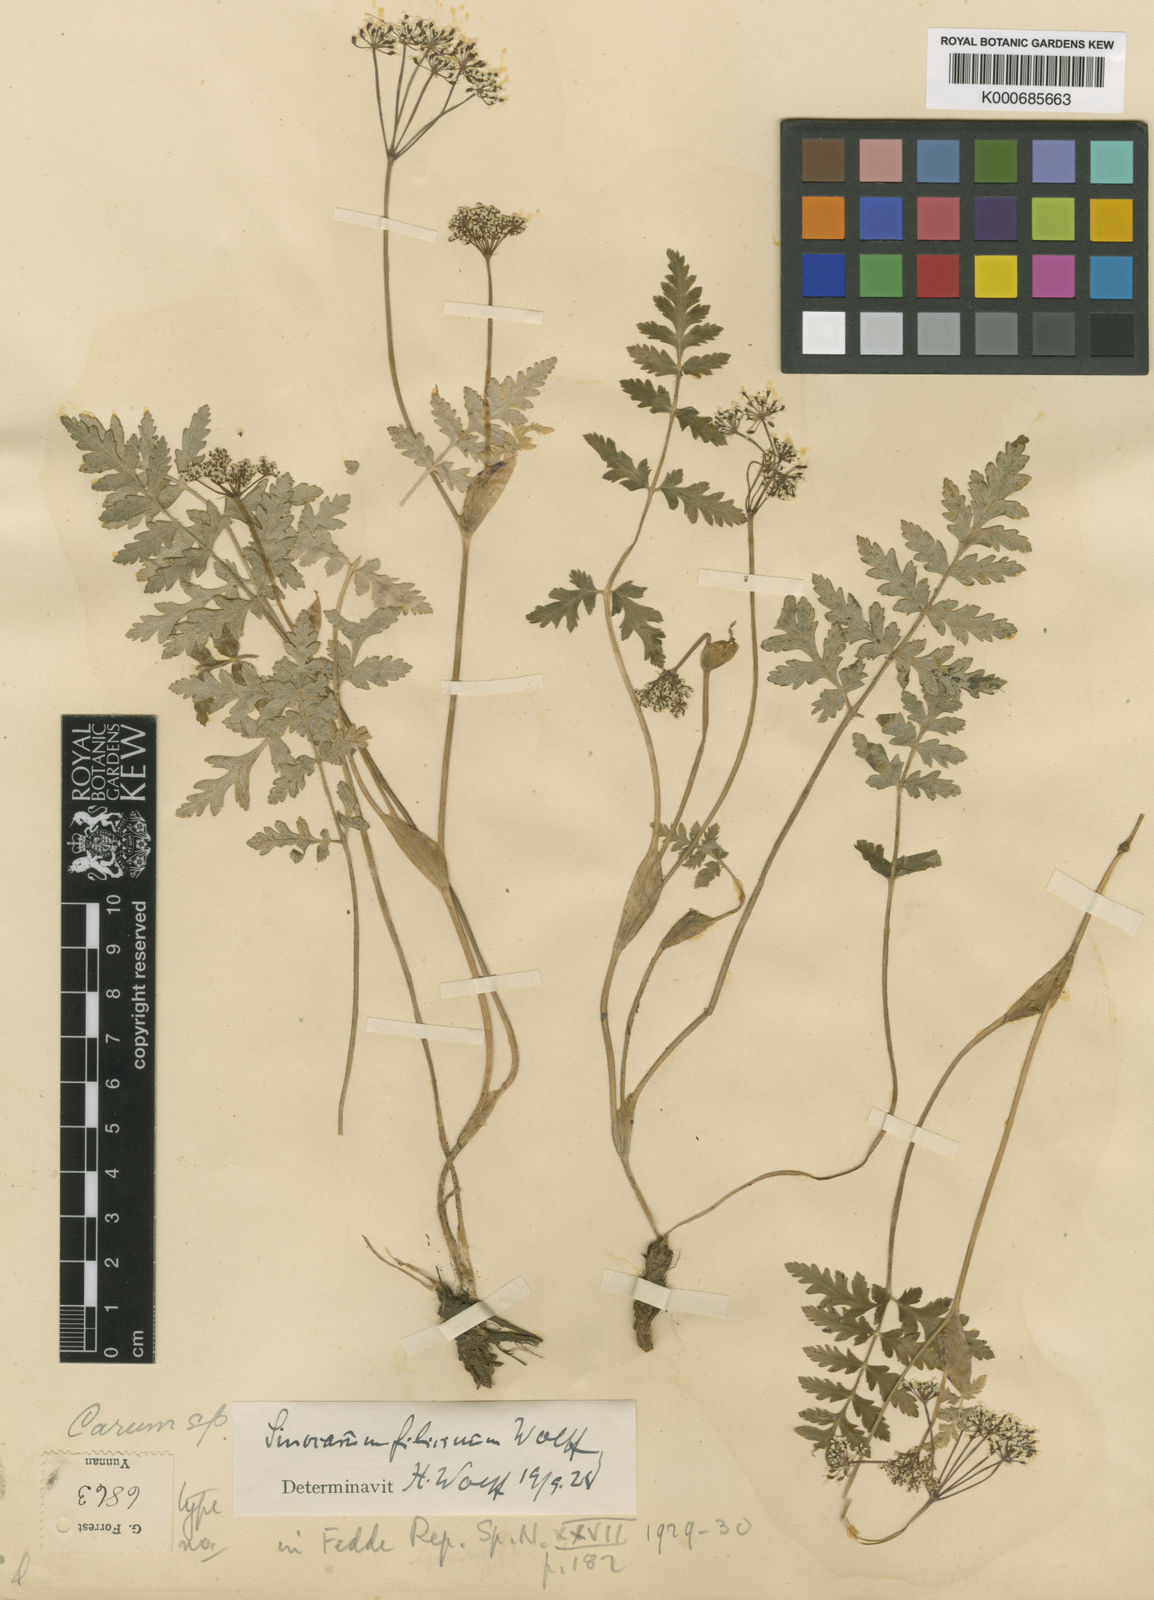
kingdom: Plantae
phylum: Tracheophyta
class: Magnoliopsida
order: Apiales
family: Apiaceae
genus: Pternopetalum
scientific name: Pternopetalum tanakae
